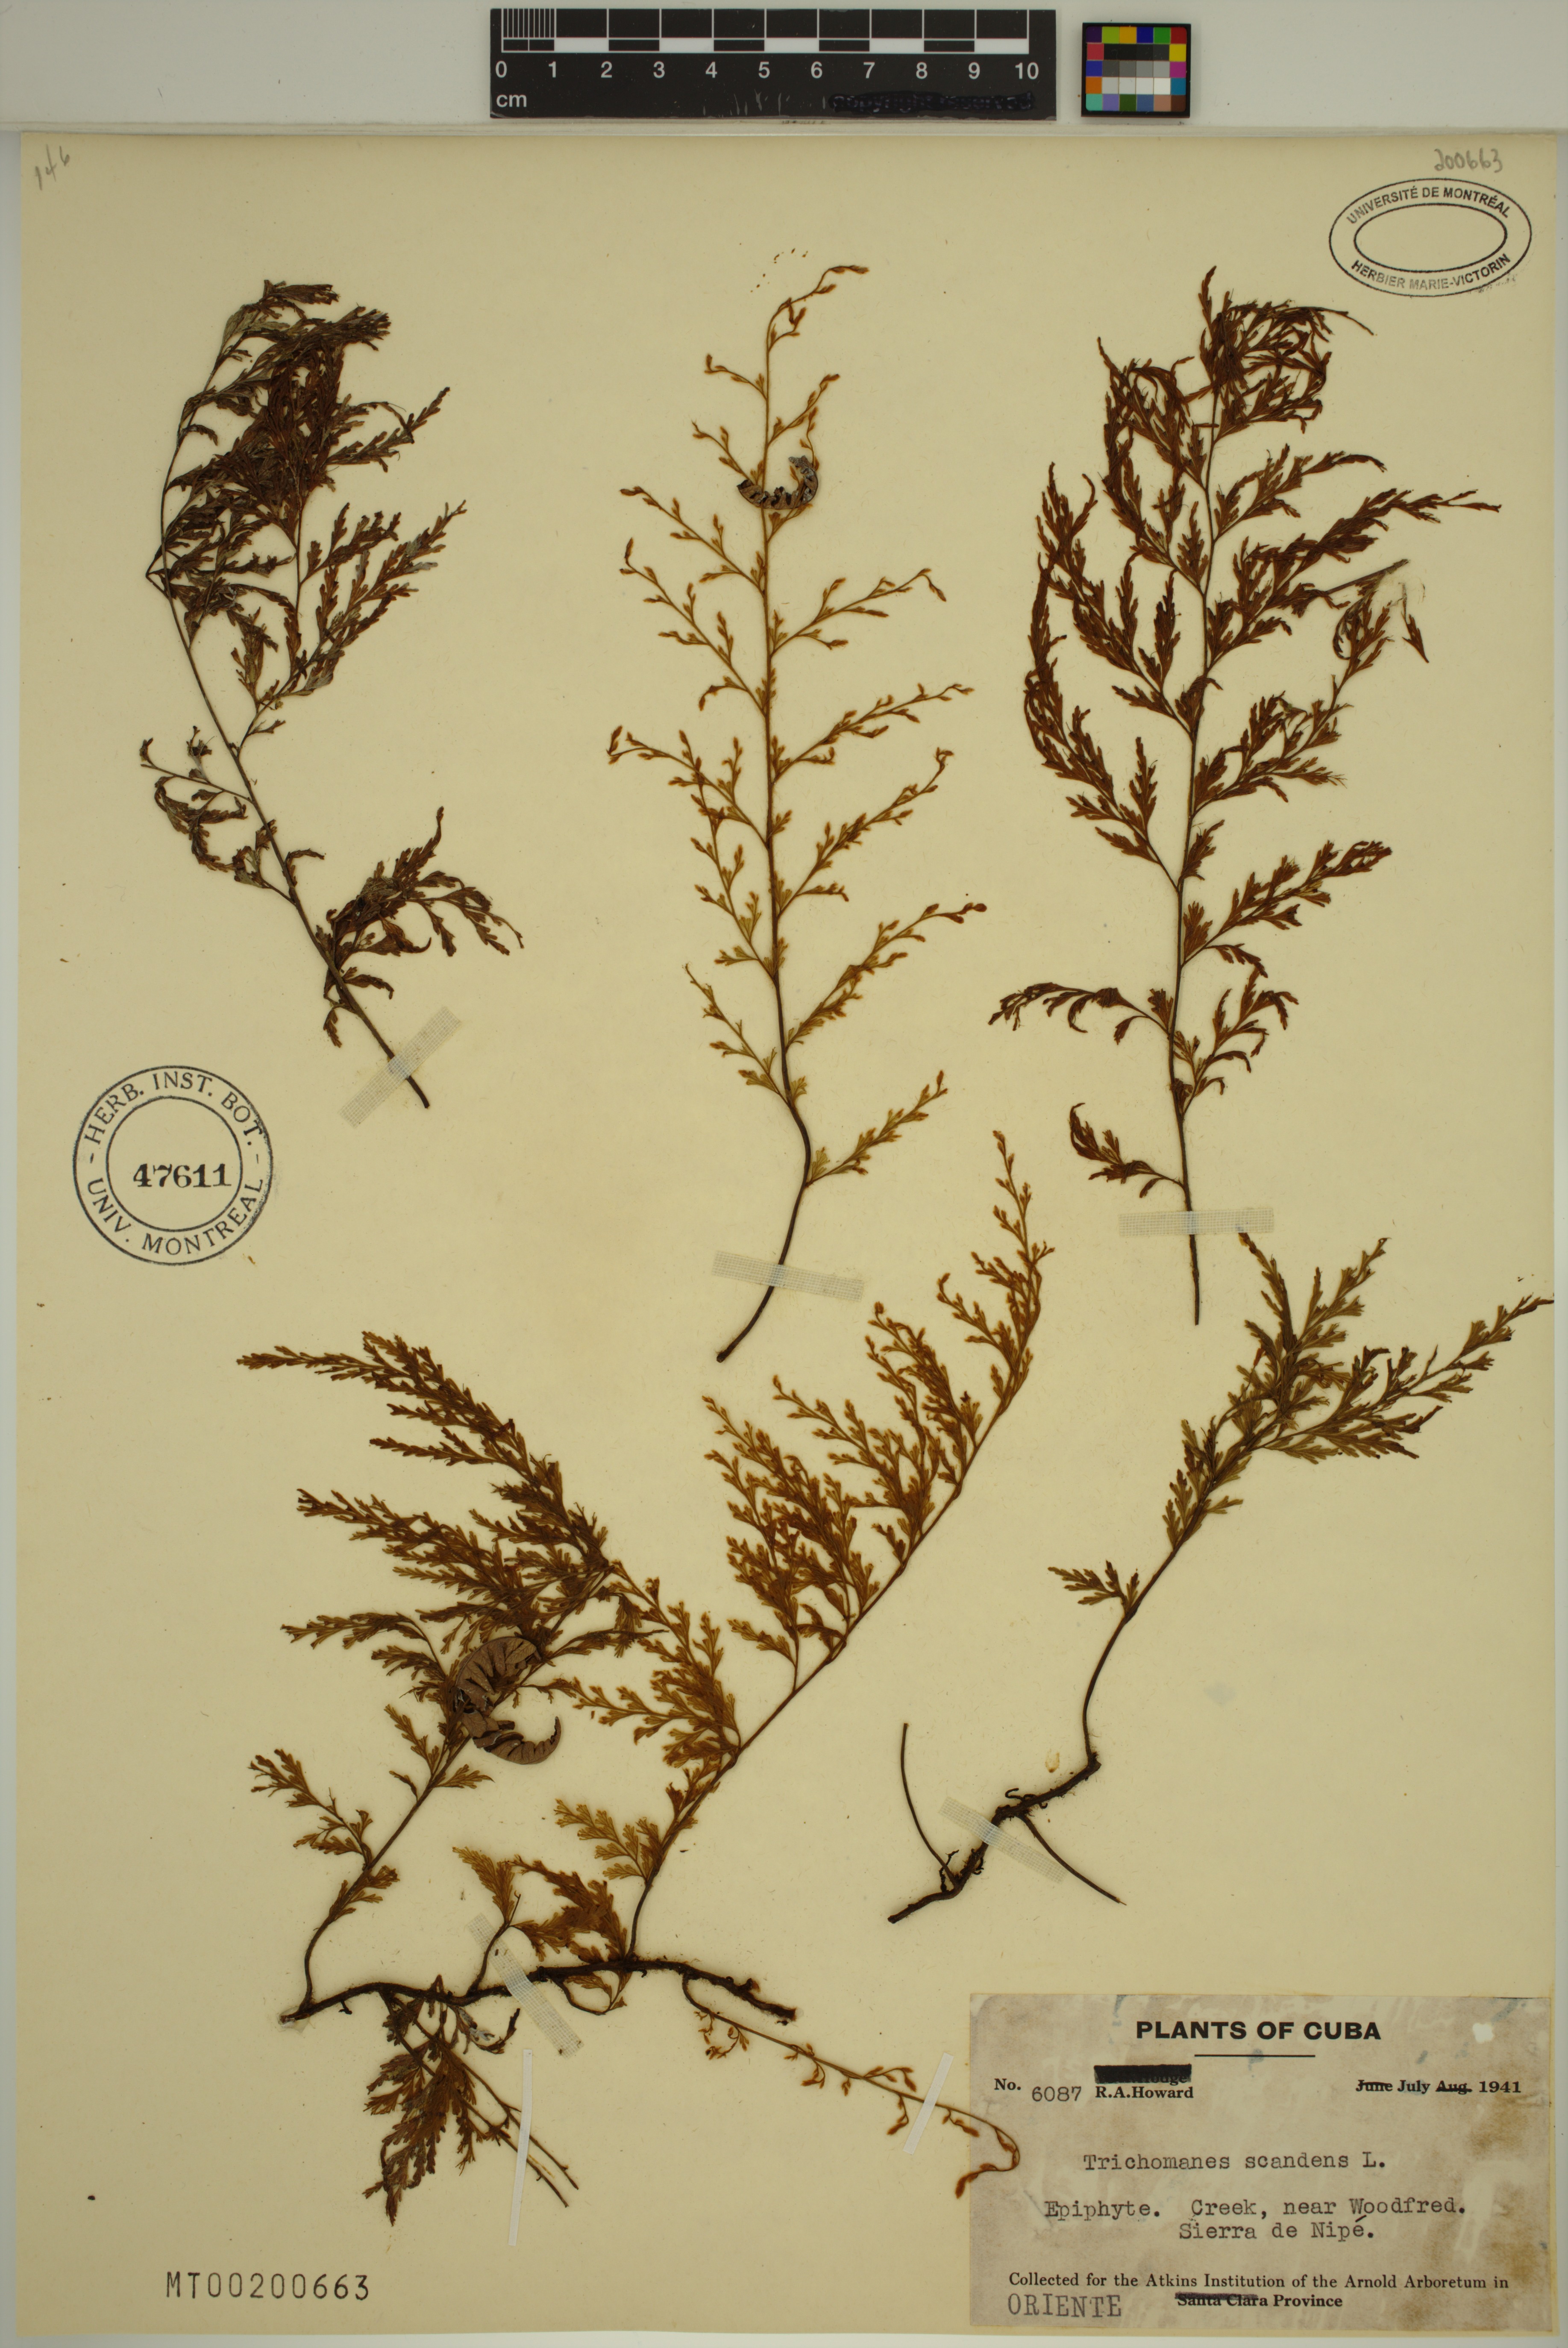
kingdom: Plantae
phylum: Tracheophyta
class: Polypodiopsida
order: Hymenophyllales
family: Hymenophyllaceae
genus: Trichomanes
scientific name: Trichomanes scandens
